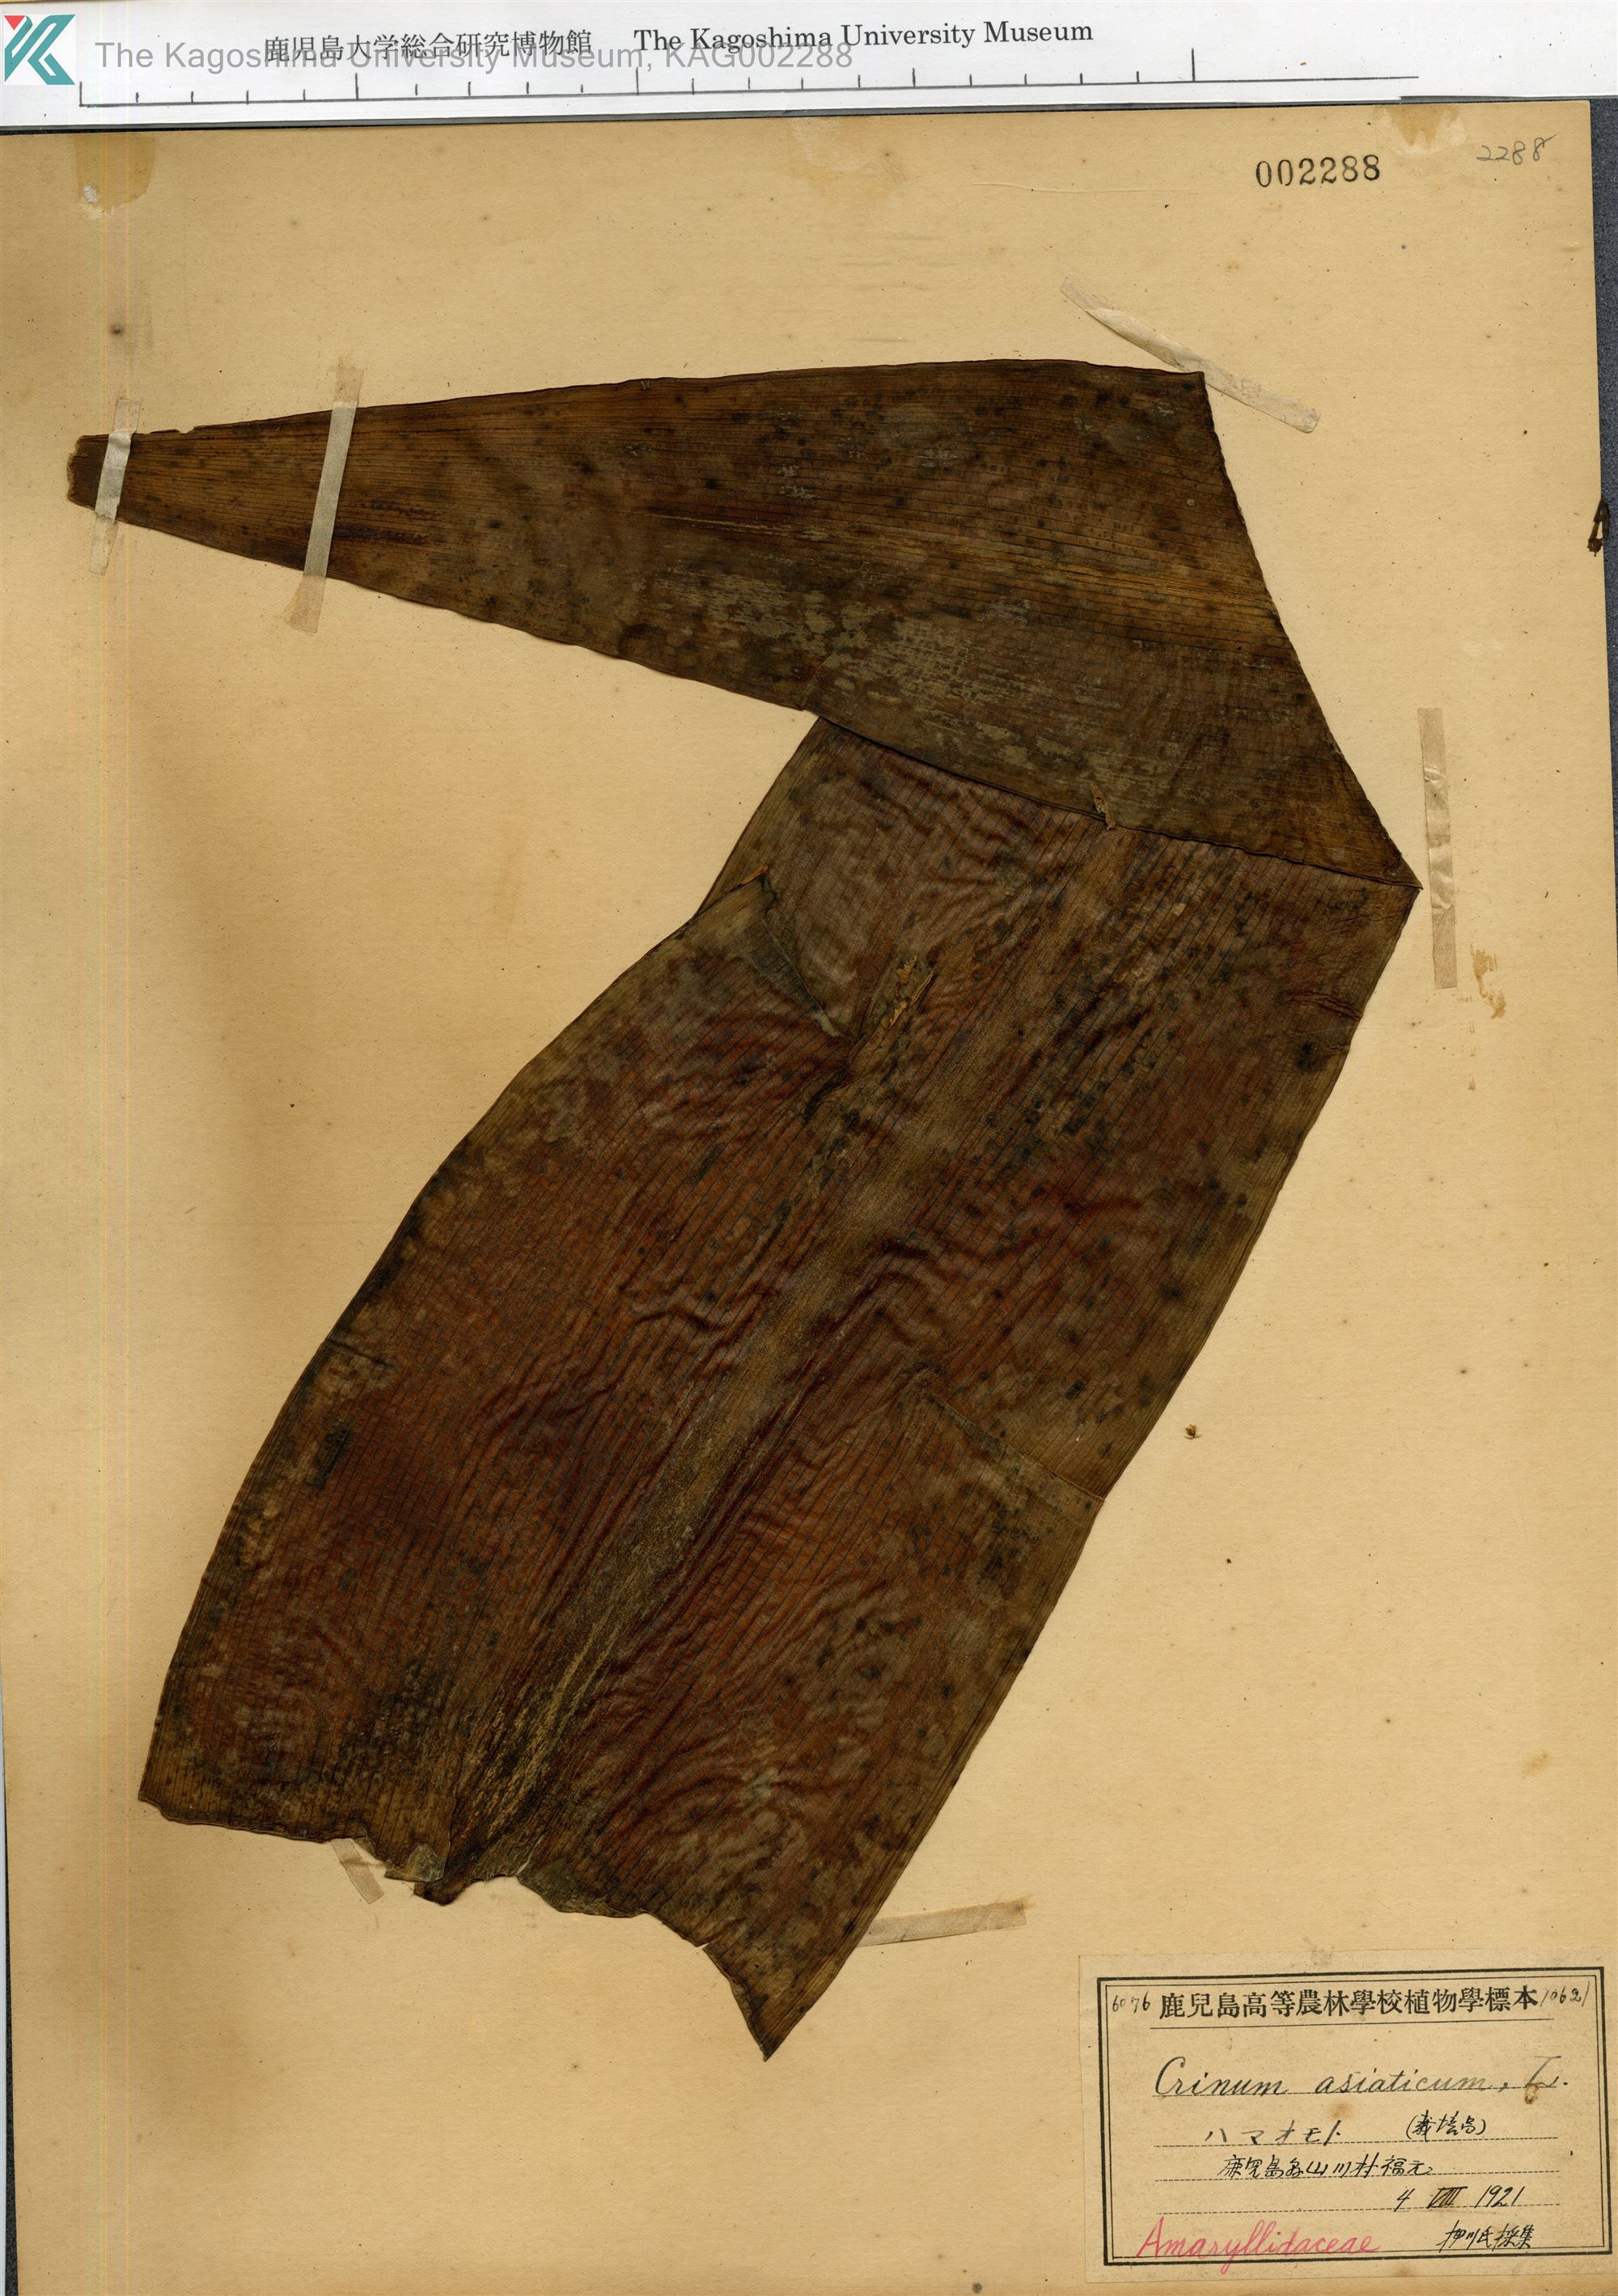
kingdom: Plantae
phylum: Tracheophyta
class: Liliopsida
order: Asparagales
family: Amaryllidaceae
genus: Crinum
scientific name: Crinum asiaticum
